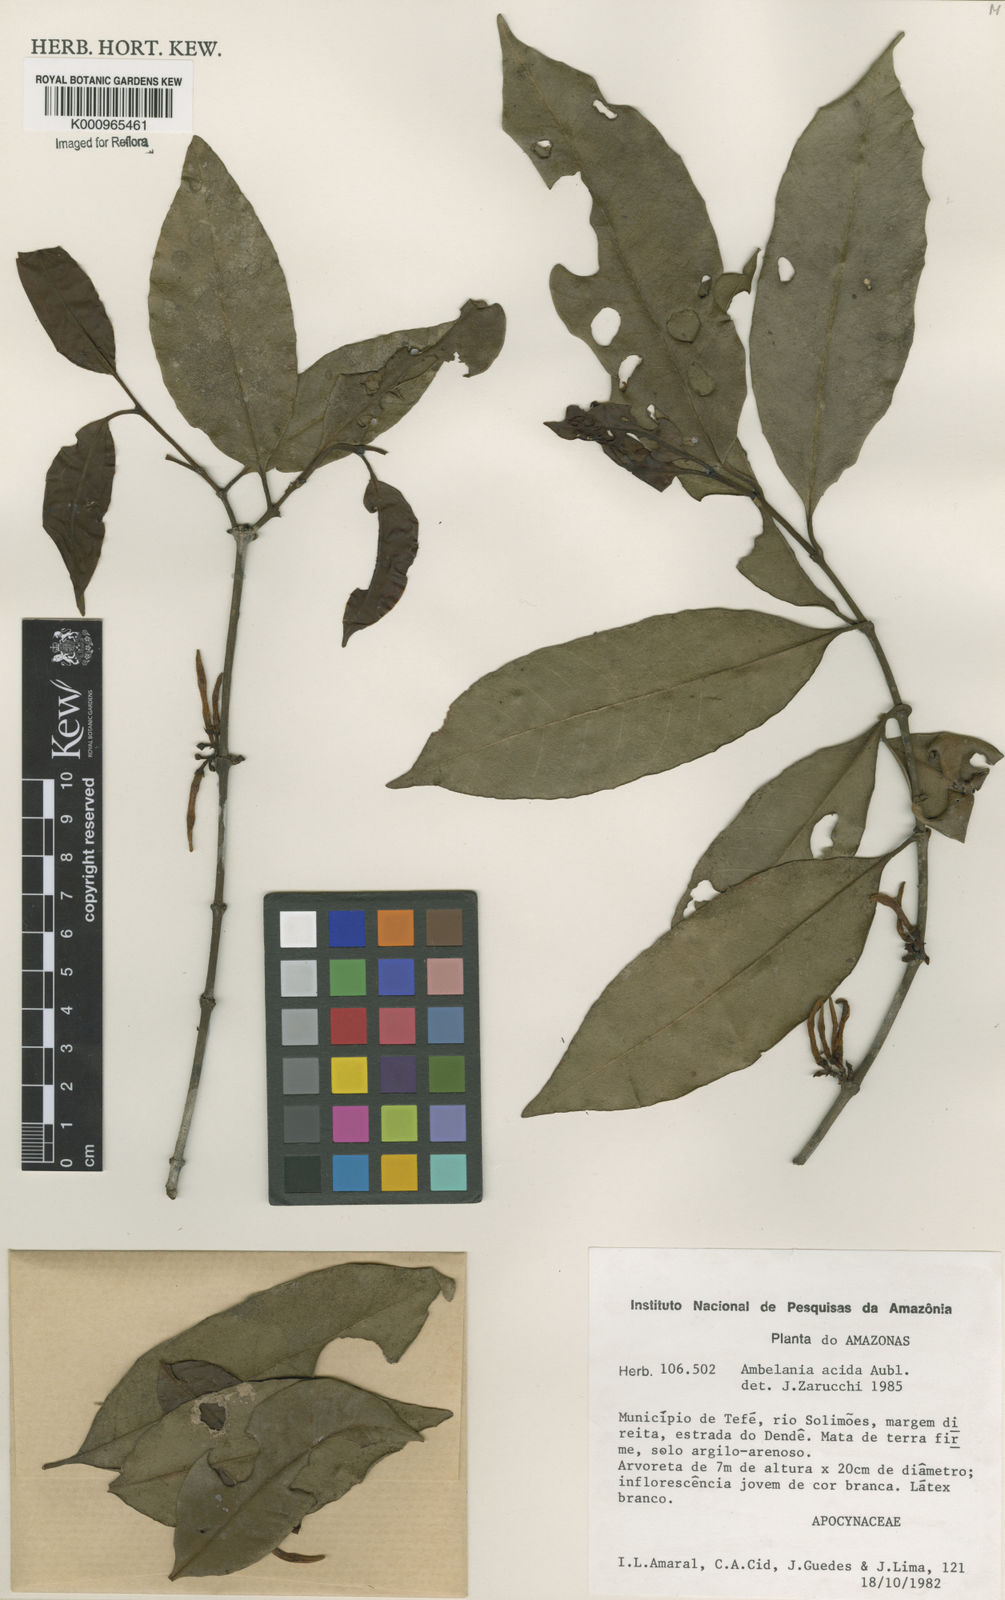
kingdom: Plantae
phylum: Tracheophyta
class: Magnoliopsida
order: Gentianales
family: Apocynaceae
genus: Ambelania
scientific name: Ambelania acida
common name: Bagasse
